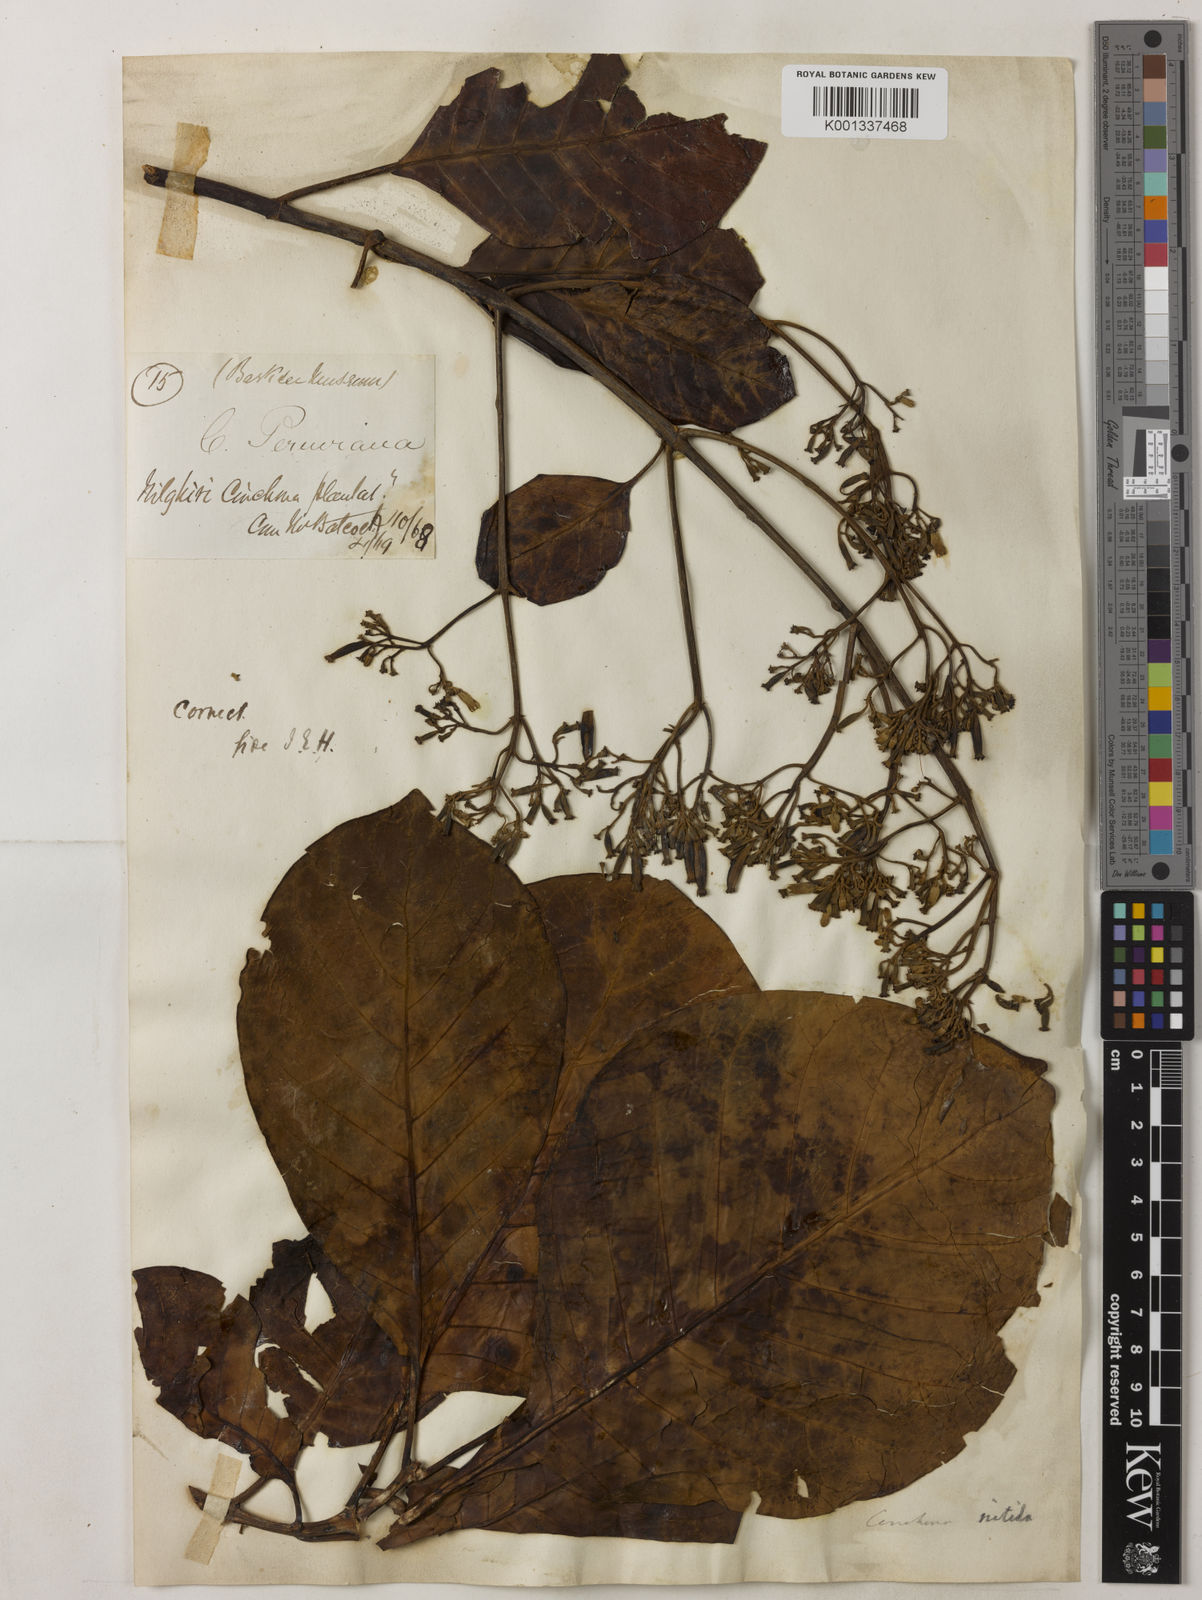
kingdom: Plantae
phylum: Tracheophyta
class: Magnoliopsida
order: Gentianales
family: Rubiaceae
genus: Cinchona
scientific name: Cinchona calisaya
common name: Ledgerbark
